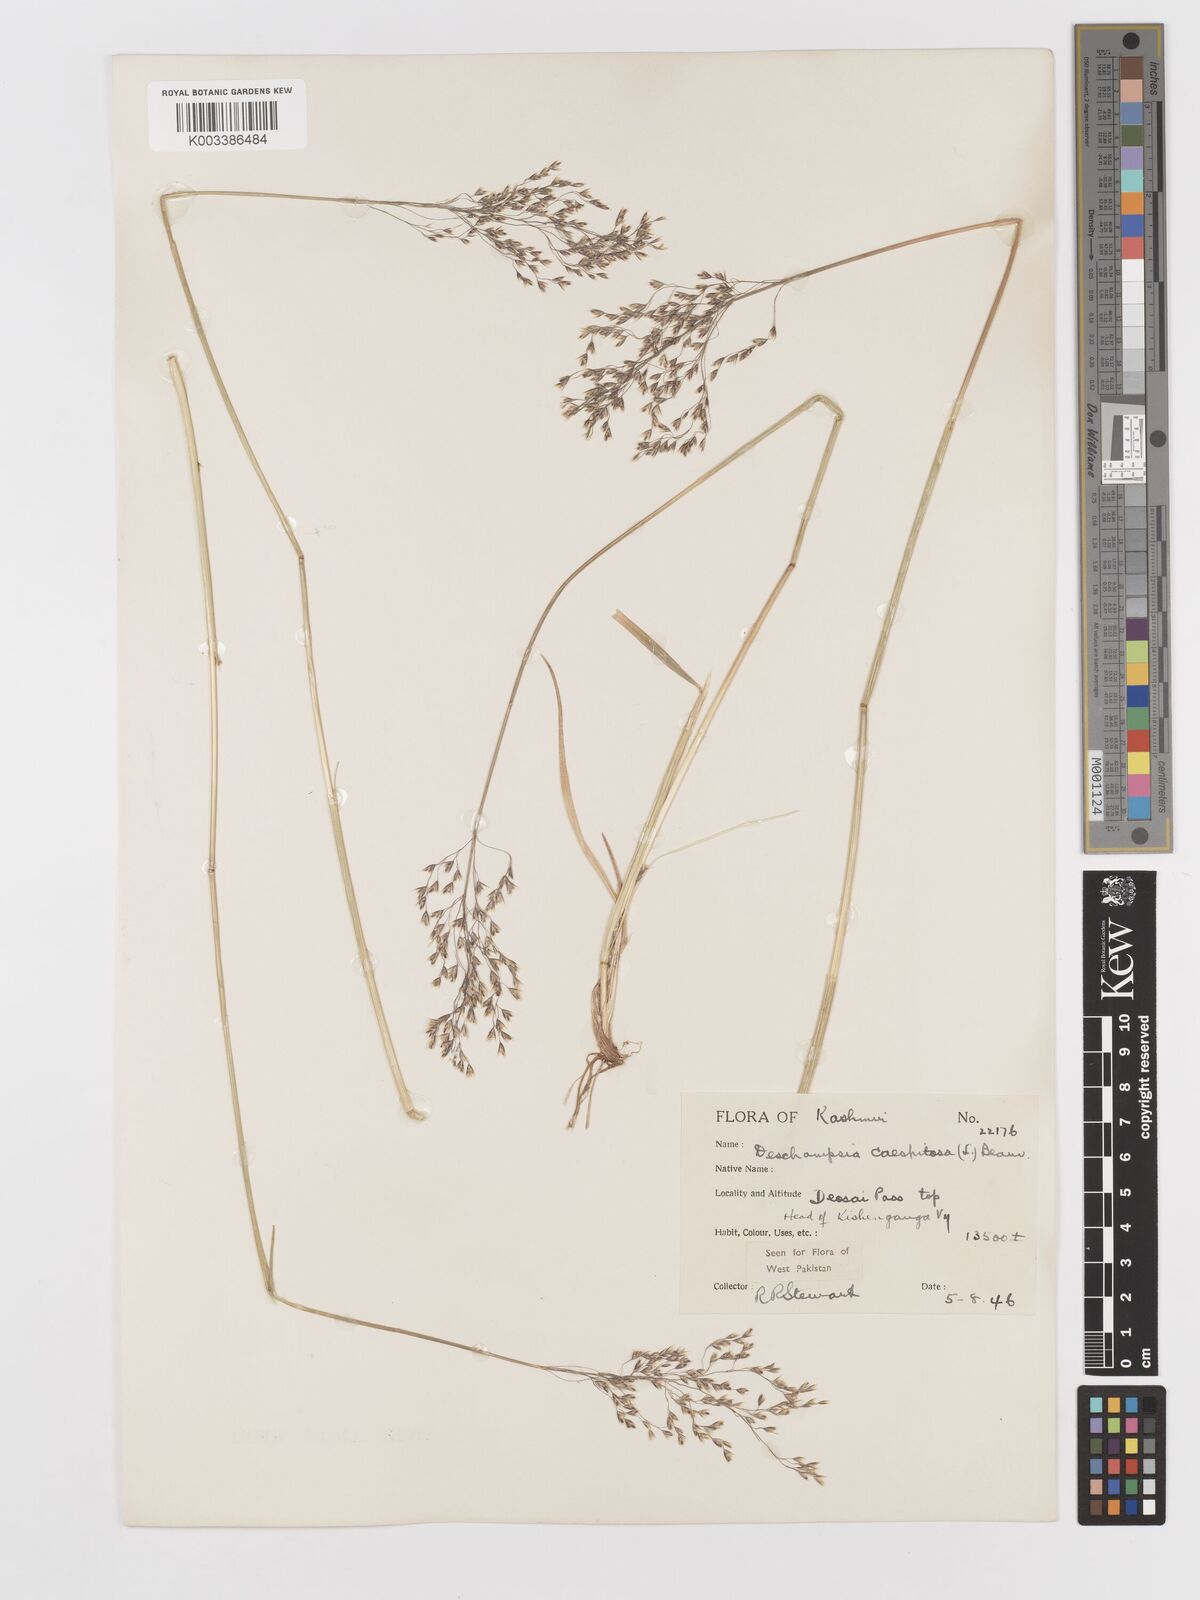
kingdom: Plantae
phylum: Tracheophyta
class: Liliopsida
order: Poales
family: Poaceae
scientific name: Poaceae
